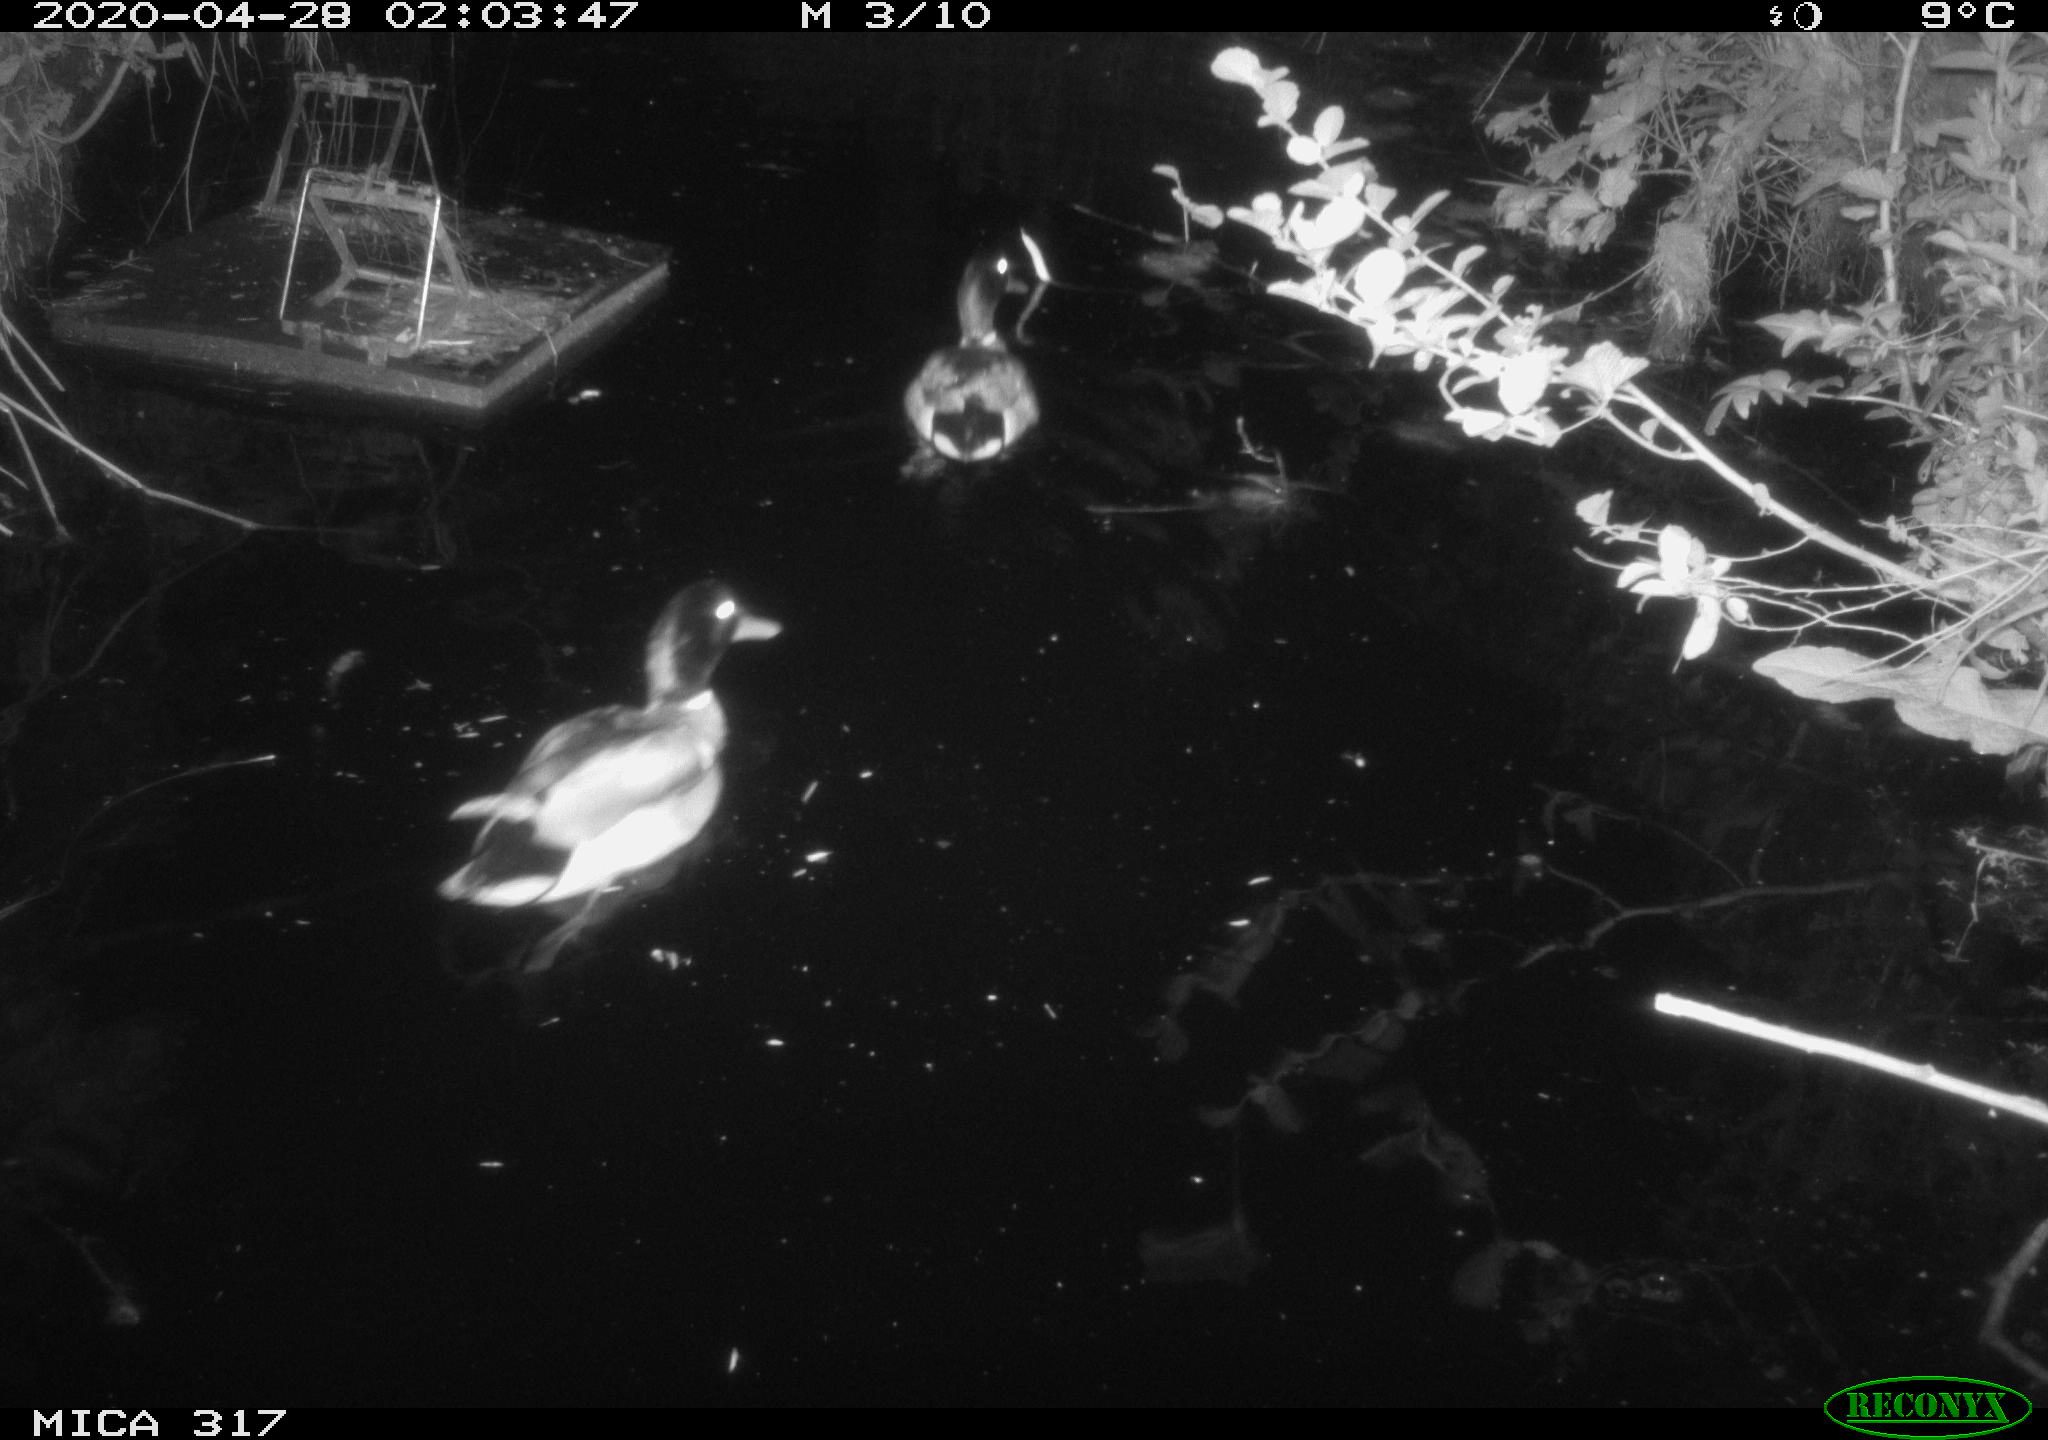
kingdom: Animalia
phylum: Chordata
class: Aves
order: Anseriformes
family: Anatidae
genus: Mareca
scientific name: Mareca strepera
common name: Gadwall
